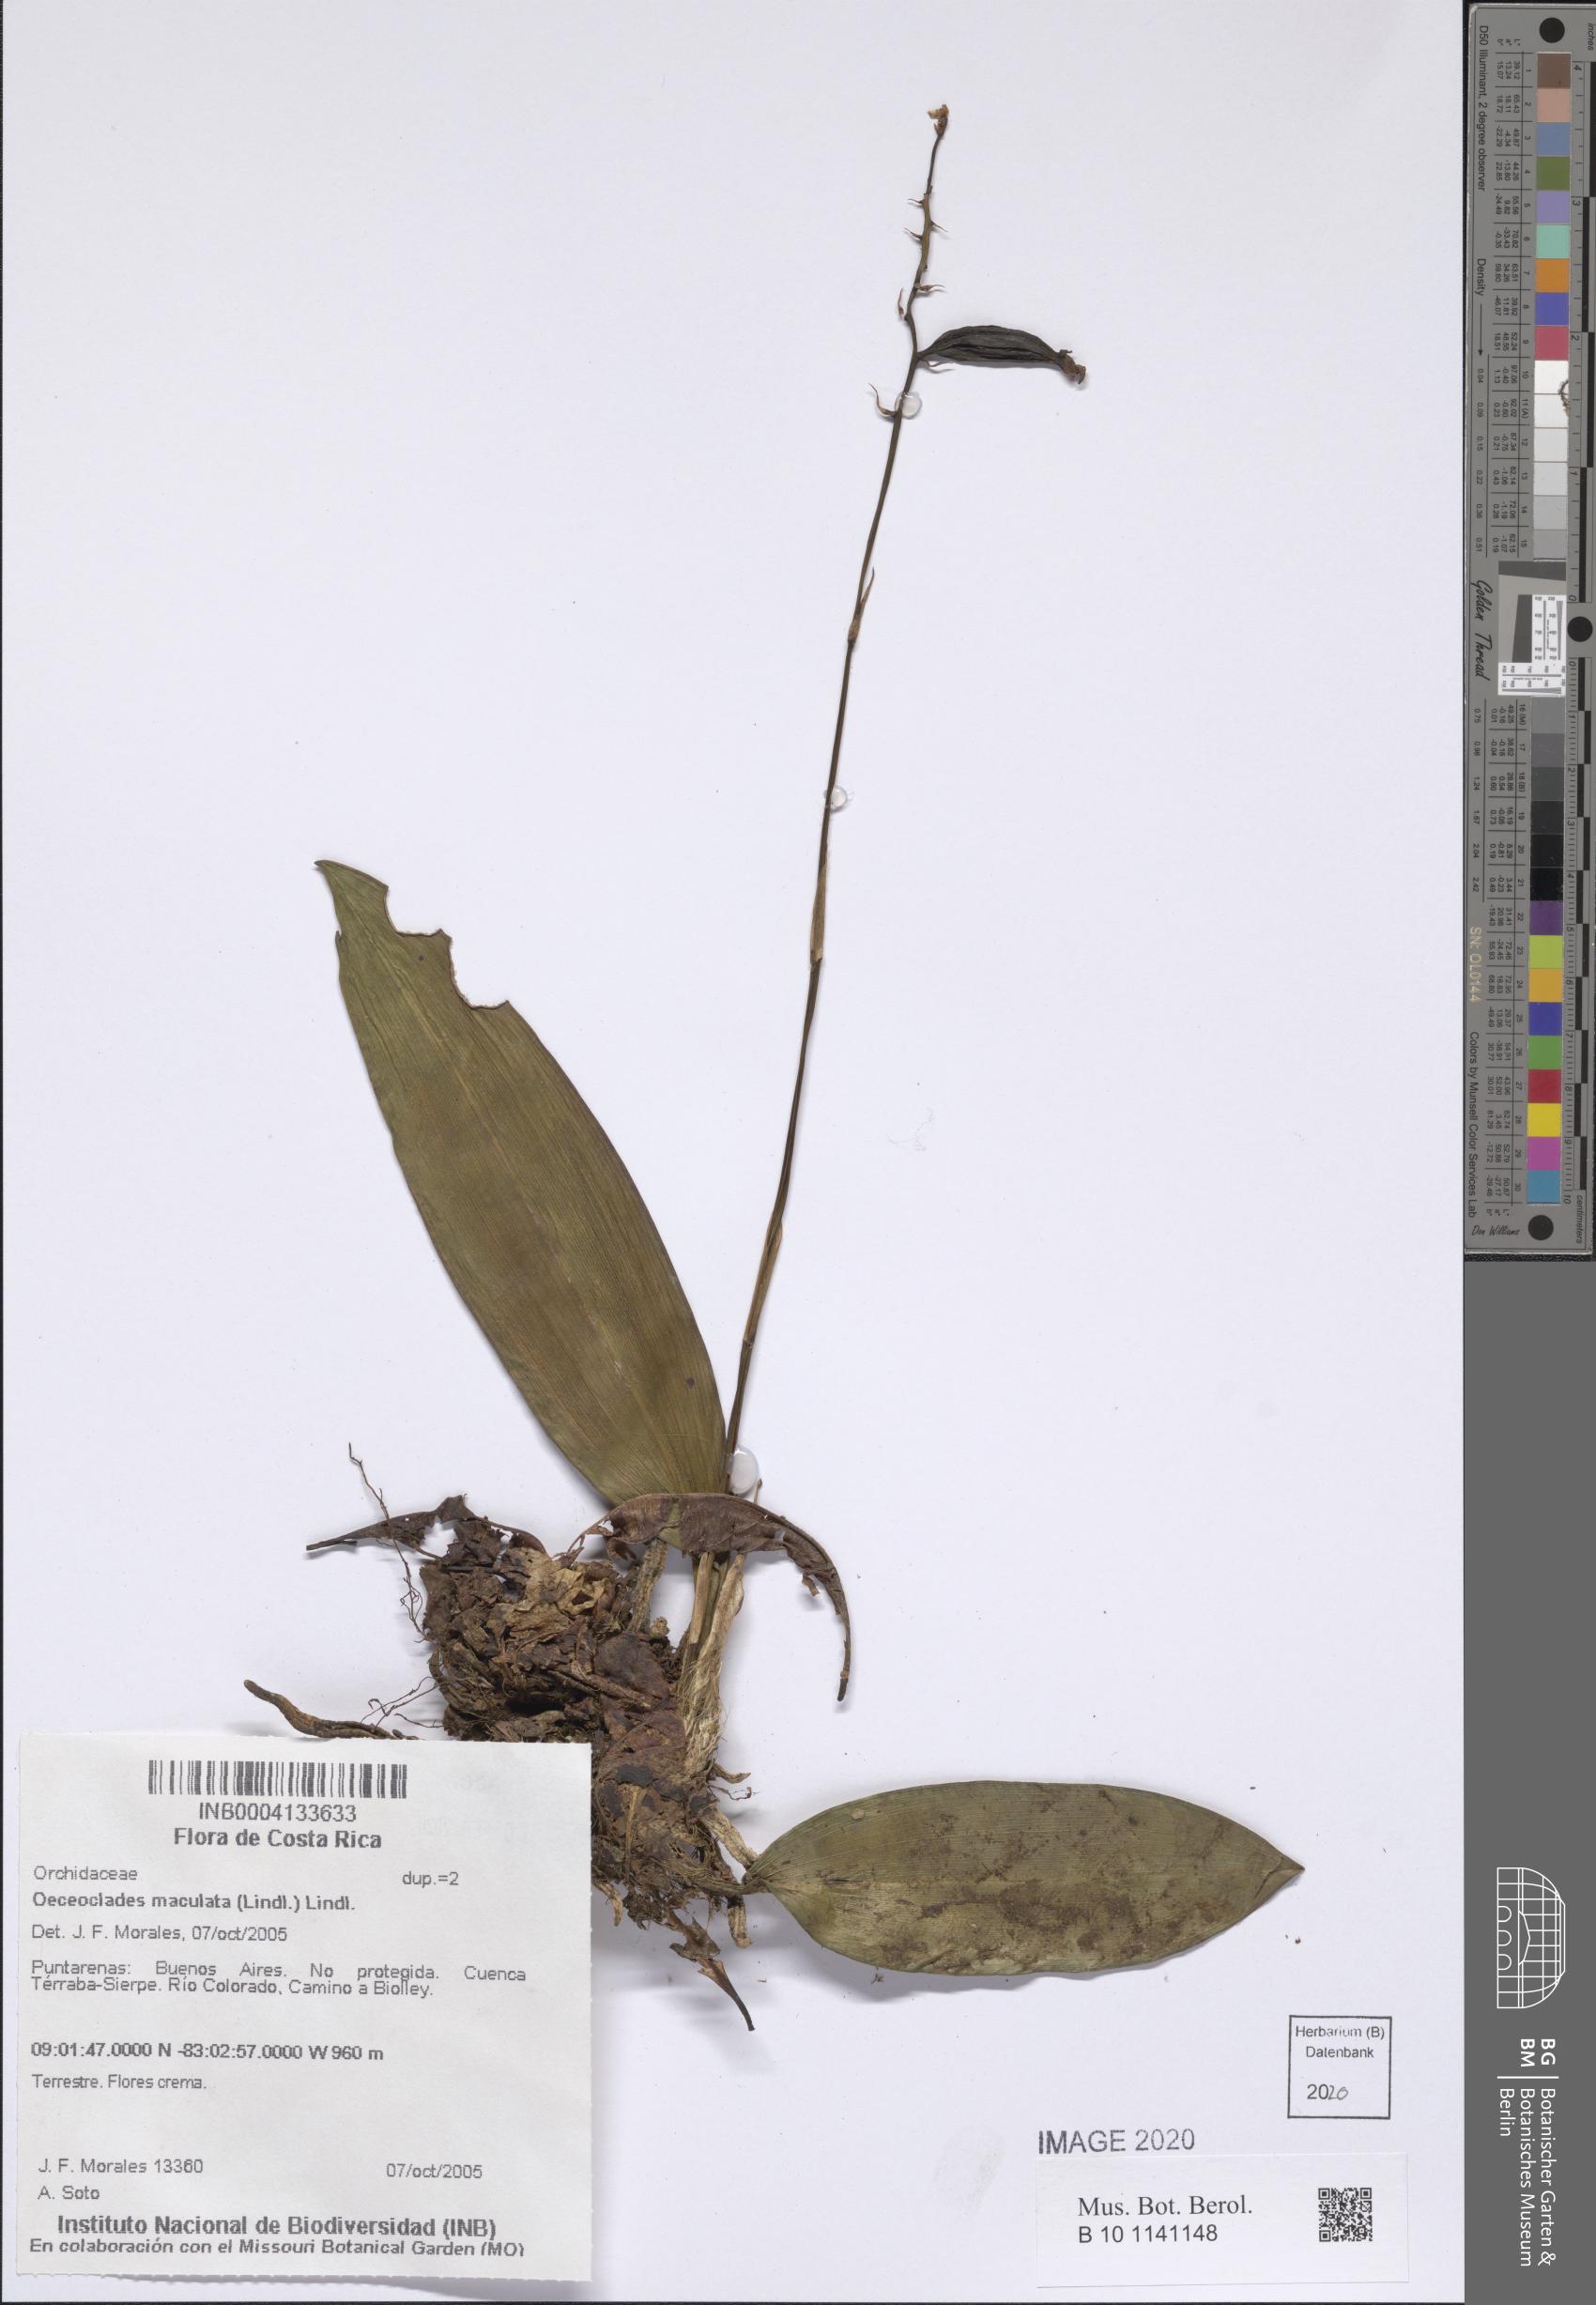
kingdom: Plantae
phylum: Tracheophyta
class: Liliopsida
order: Asparagales
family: Orchidaceae
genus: Eulophia
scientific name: Eulophia maculata
